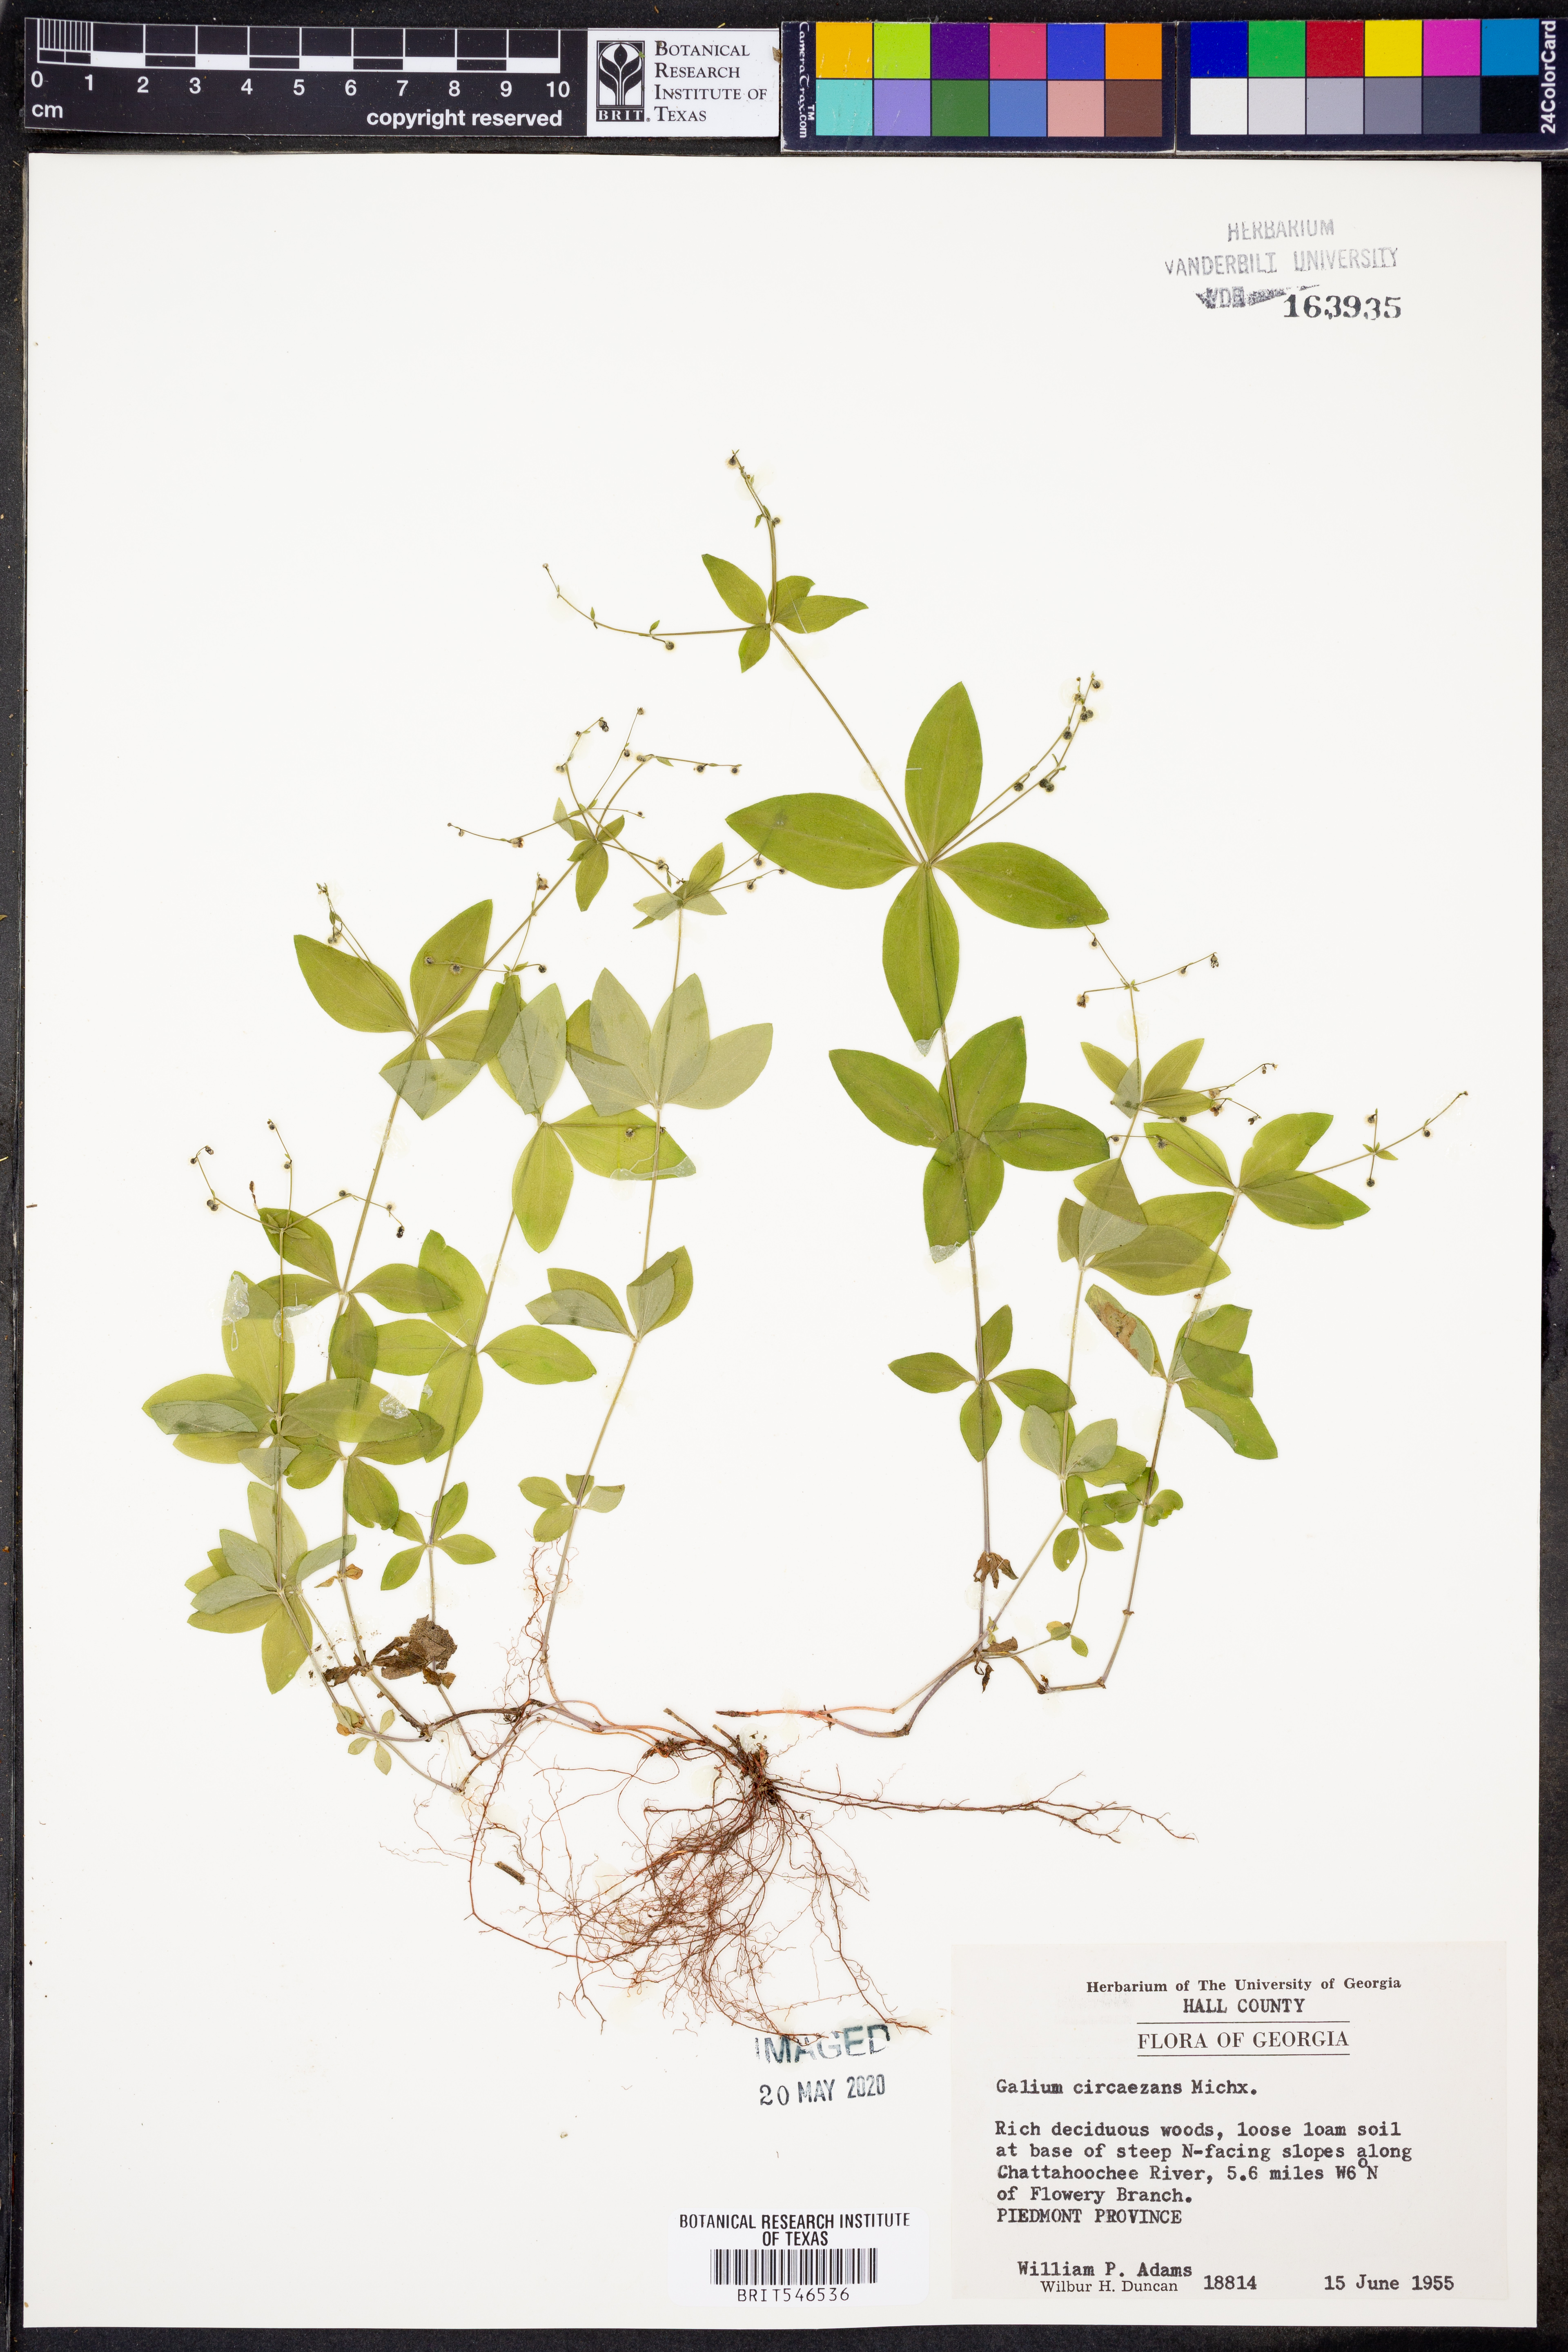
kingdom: Plantae
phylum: Tracheophyta
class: Magnoliopsida
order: Gentianales
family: Rubiaceae
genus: Galium
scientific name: Galium circaezans
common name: Forest bedstraw
